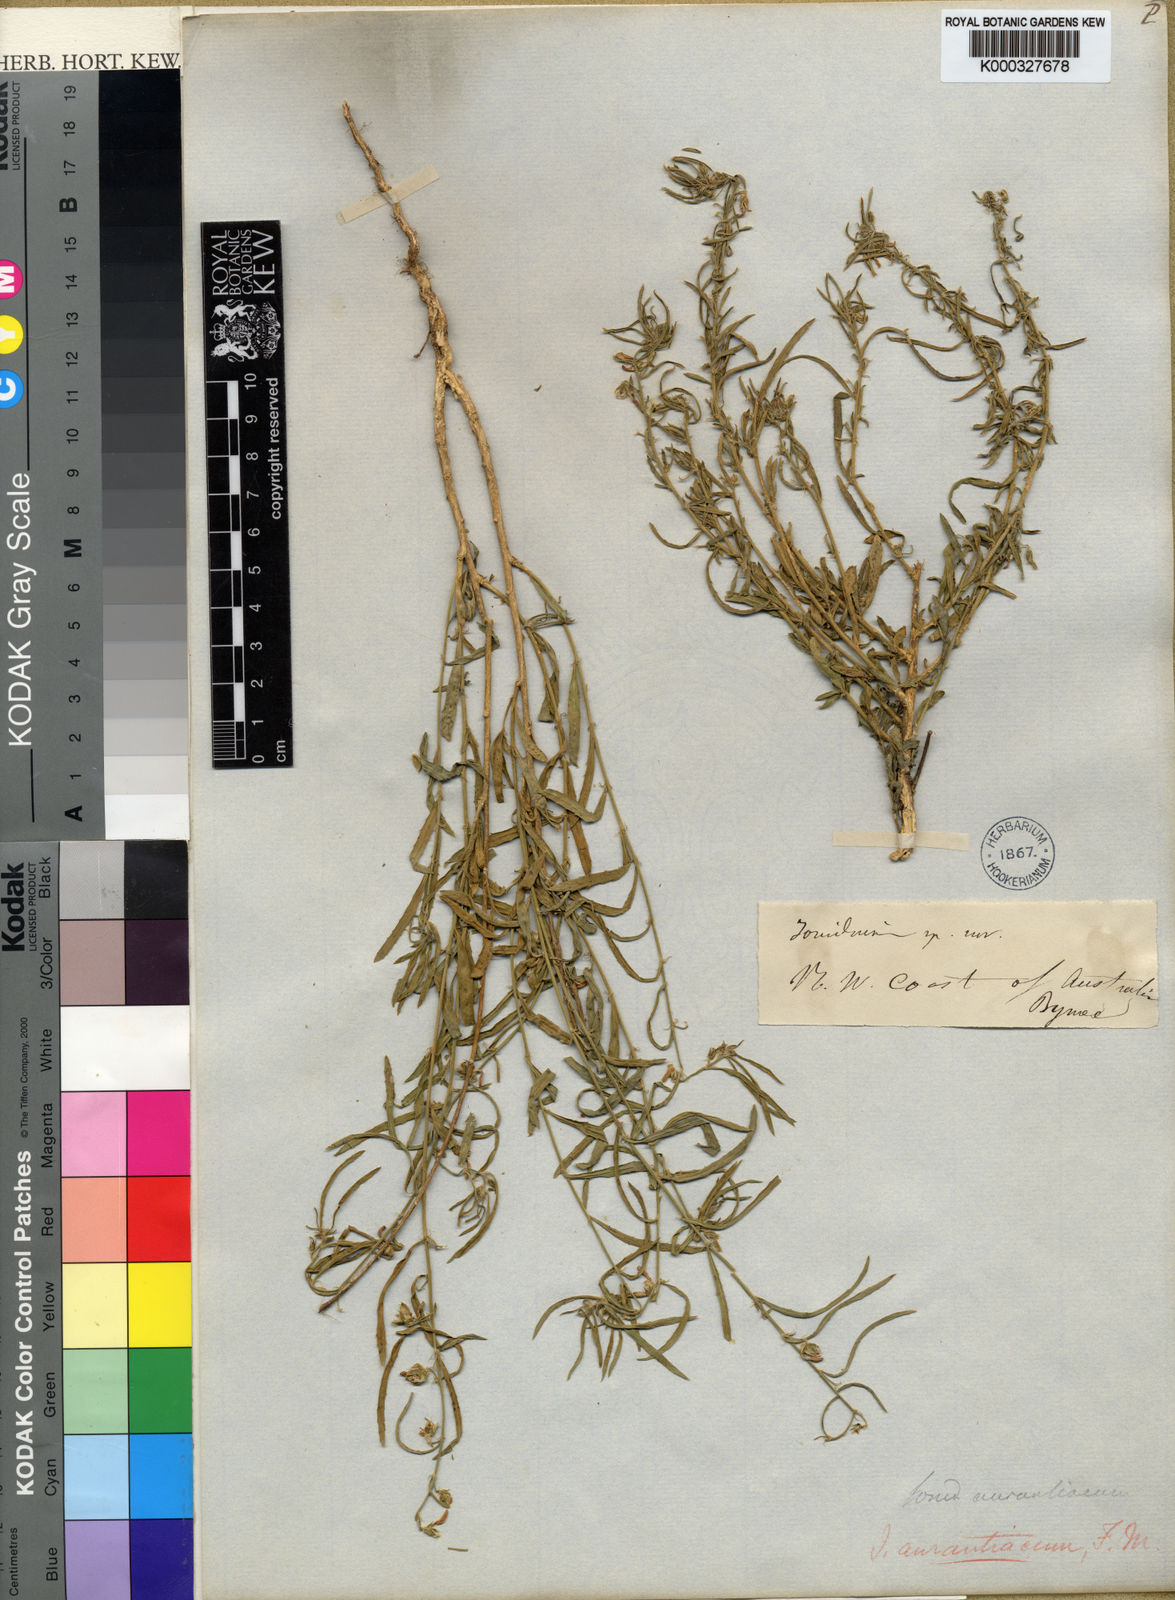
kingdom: Plantae
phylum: Tracheophyta
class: Magnoliopsida
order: Malpighiales
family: Violaceae
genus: Hybanthus
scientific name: Hybanthus
